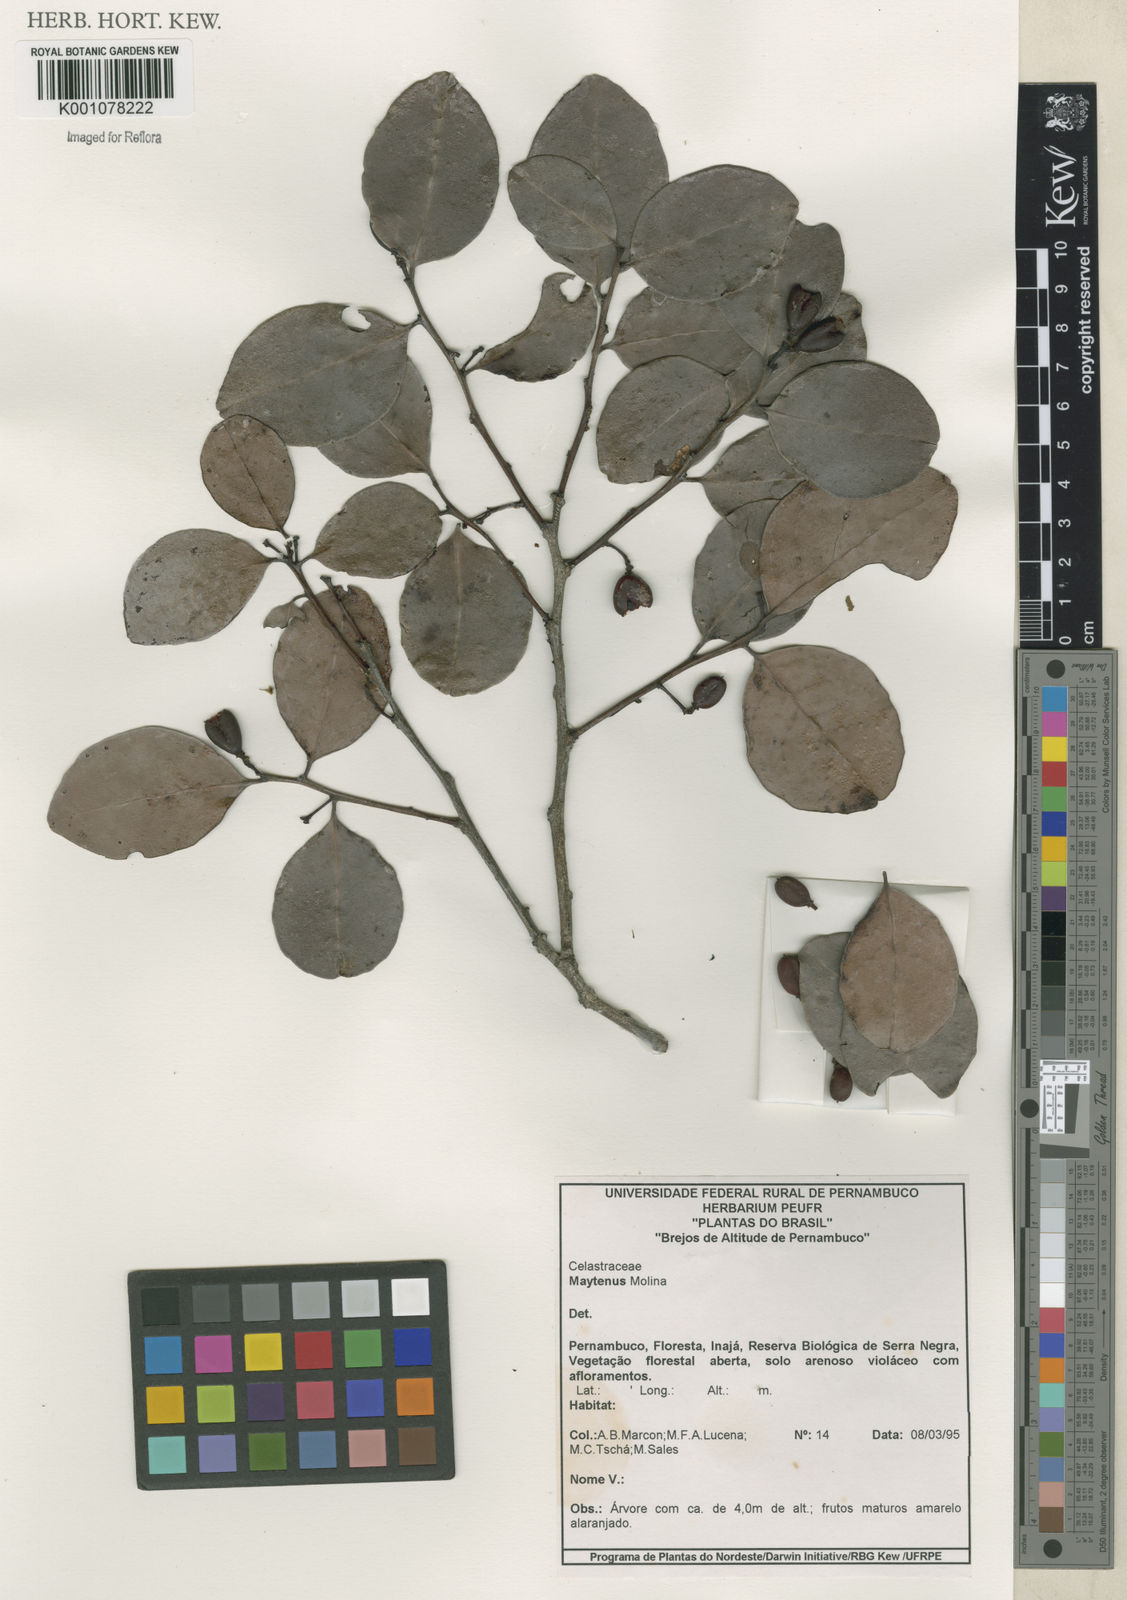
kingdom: Plantae
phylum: Tracheophyta
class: Magnoliopsida
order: Celastrales
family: Celastraceae
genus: Maytenus
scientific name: Maytenus
